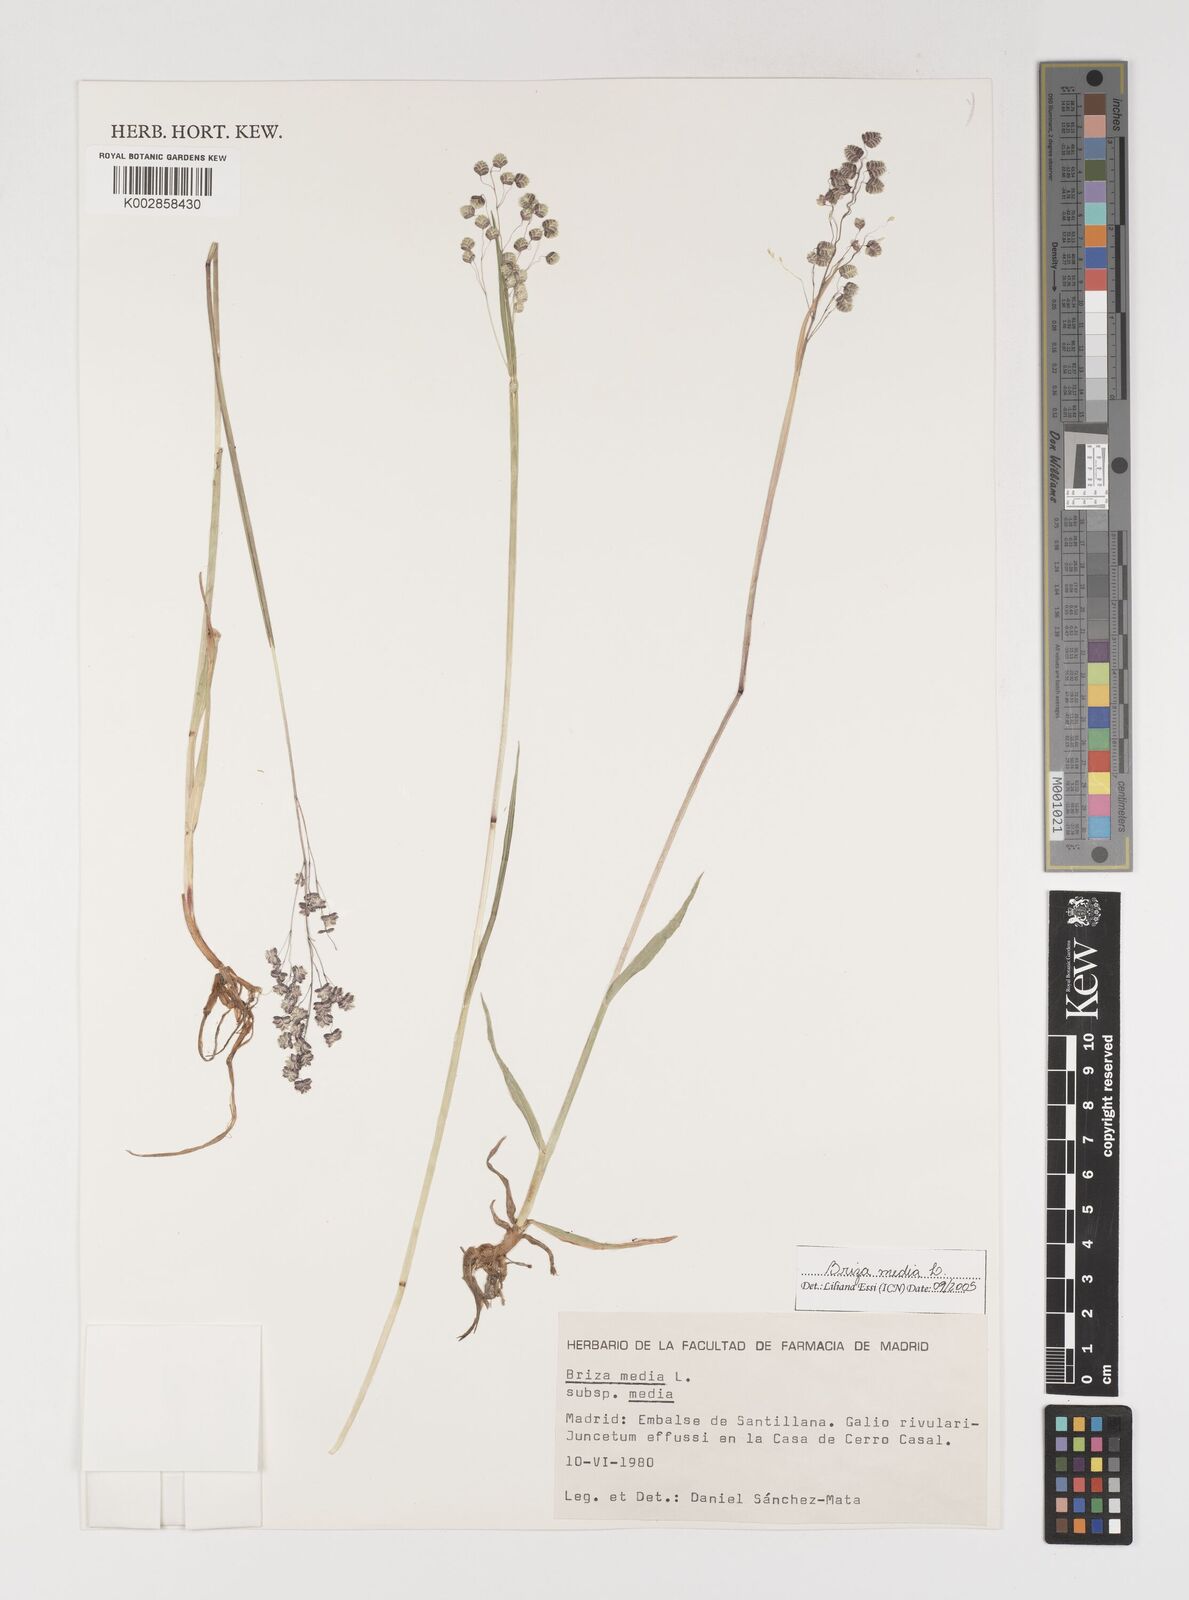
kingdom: Plantae
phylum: Tracheophyta
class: Liliopsida
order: Poales
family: Poaceae
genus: Briza
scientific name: Briza media
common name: Quaking grass
